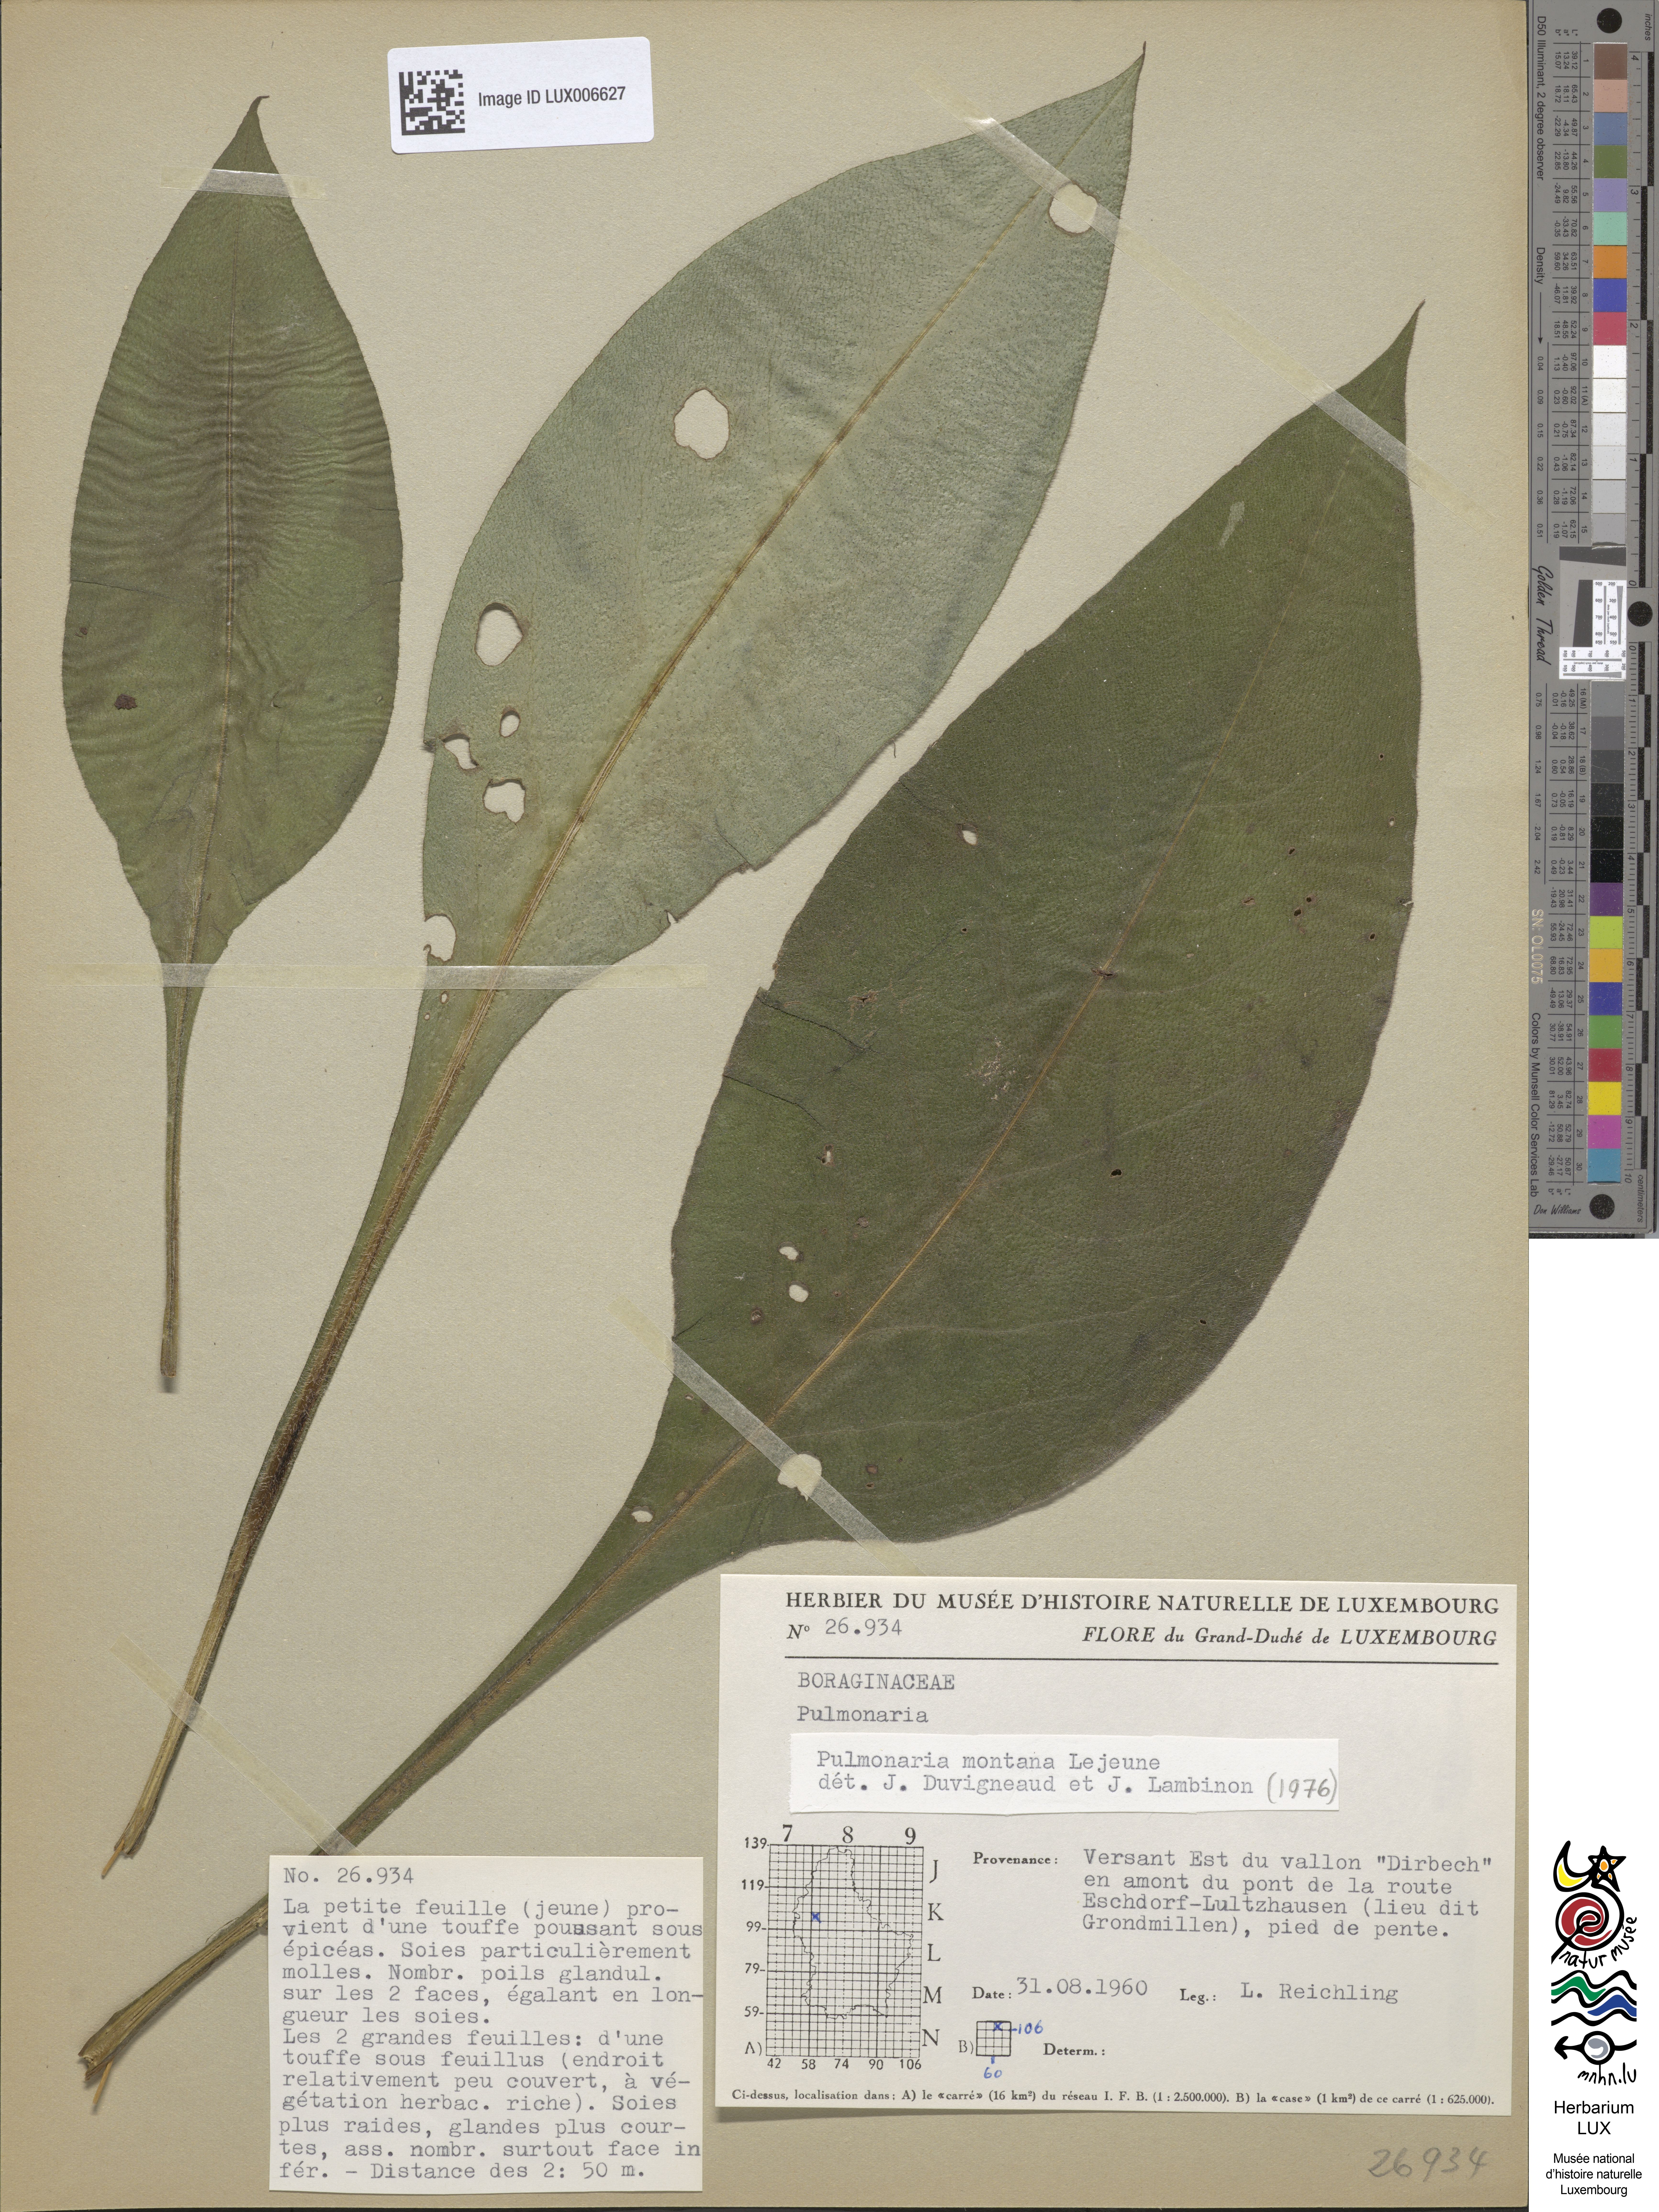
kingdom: Plantae
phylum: Tracheophyta
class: Magnoliopsida
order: Boraginales
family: Boraginaceae
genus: Pulmonaria
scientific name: Pulmonaria montana
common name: Mountain lungwort
